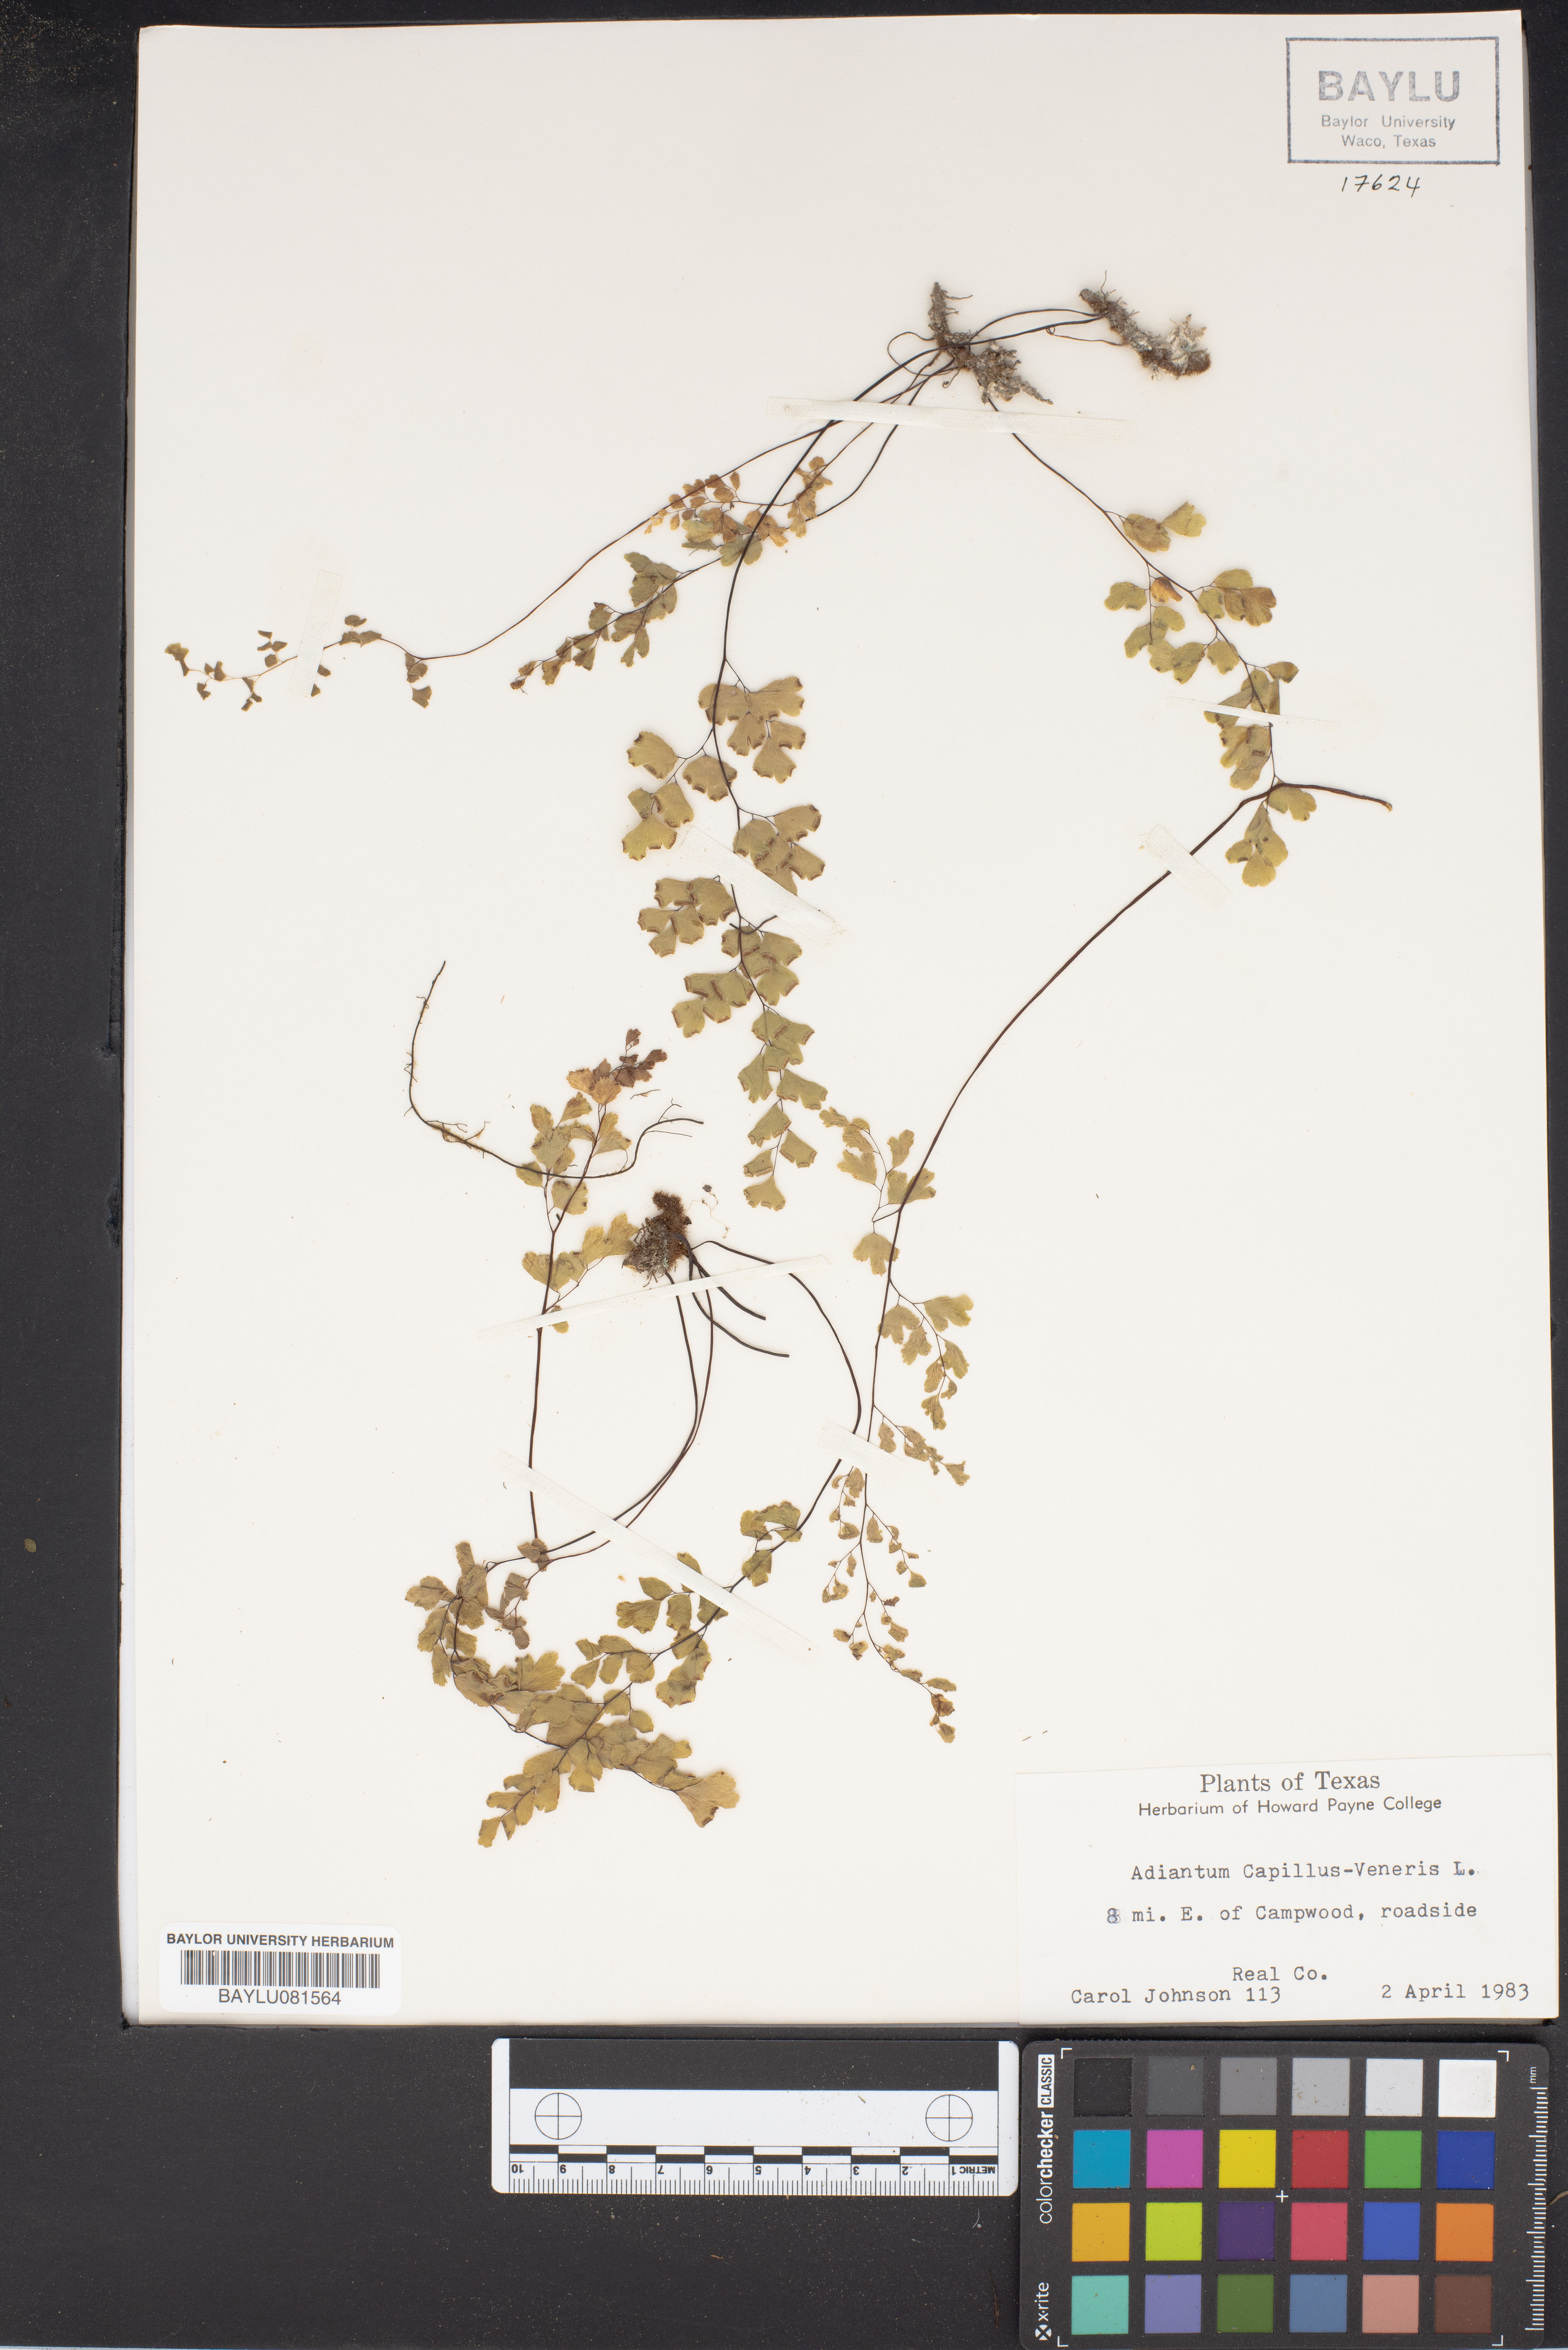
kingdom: Plantae
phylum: Tracheophyta
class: Polypodiopsida
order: Polypodiales
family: Pteridaceae
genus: Adiantum
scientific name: Adiantum capillus-veneris
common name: Maidenhair fern
